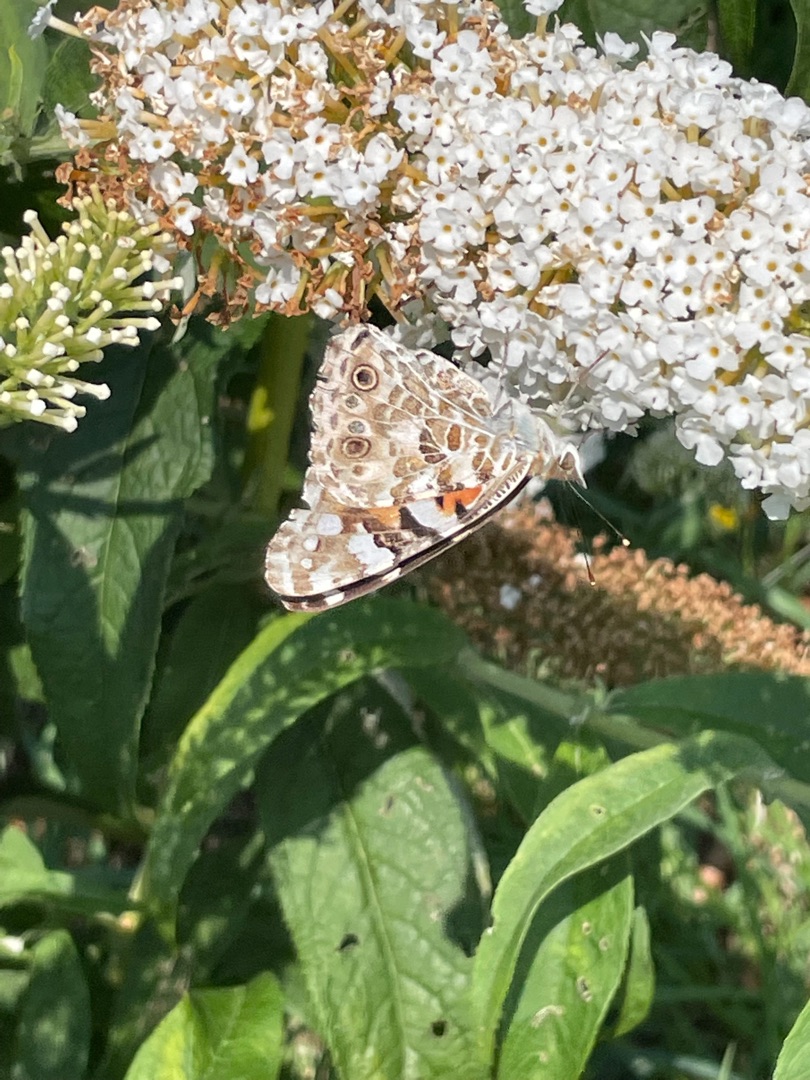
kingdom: Animalia
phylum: Arthropoda
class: Insecta
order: Lepidoptera
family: Nymphalidae
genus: Vanessa
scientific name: Vanessa cardui
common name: Tidselsommerfugl
